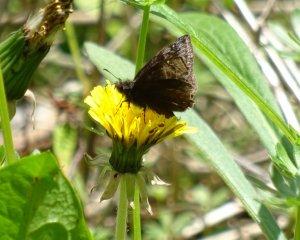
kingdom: Animalia
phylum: Arthropoda
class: Insecta
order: Lepidoptera
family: Hesperiidae
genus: Erynnis
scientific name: Erynnis
